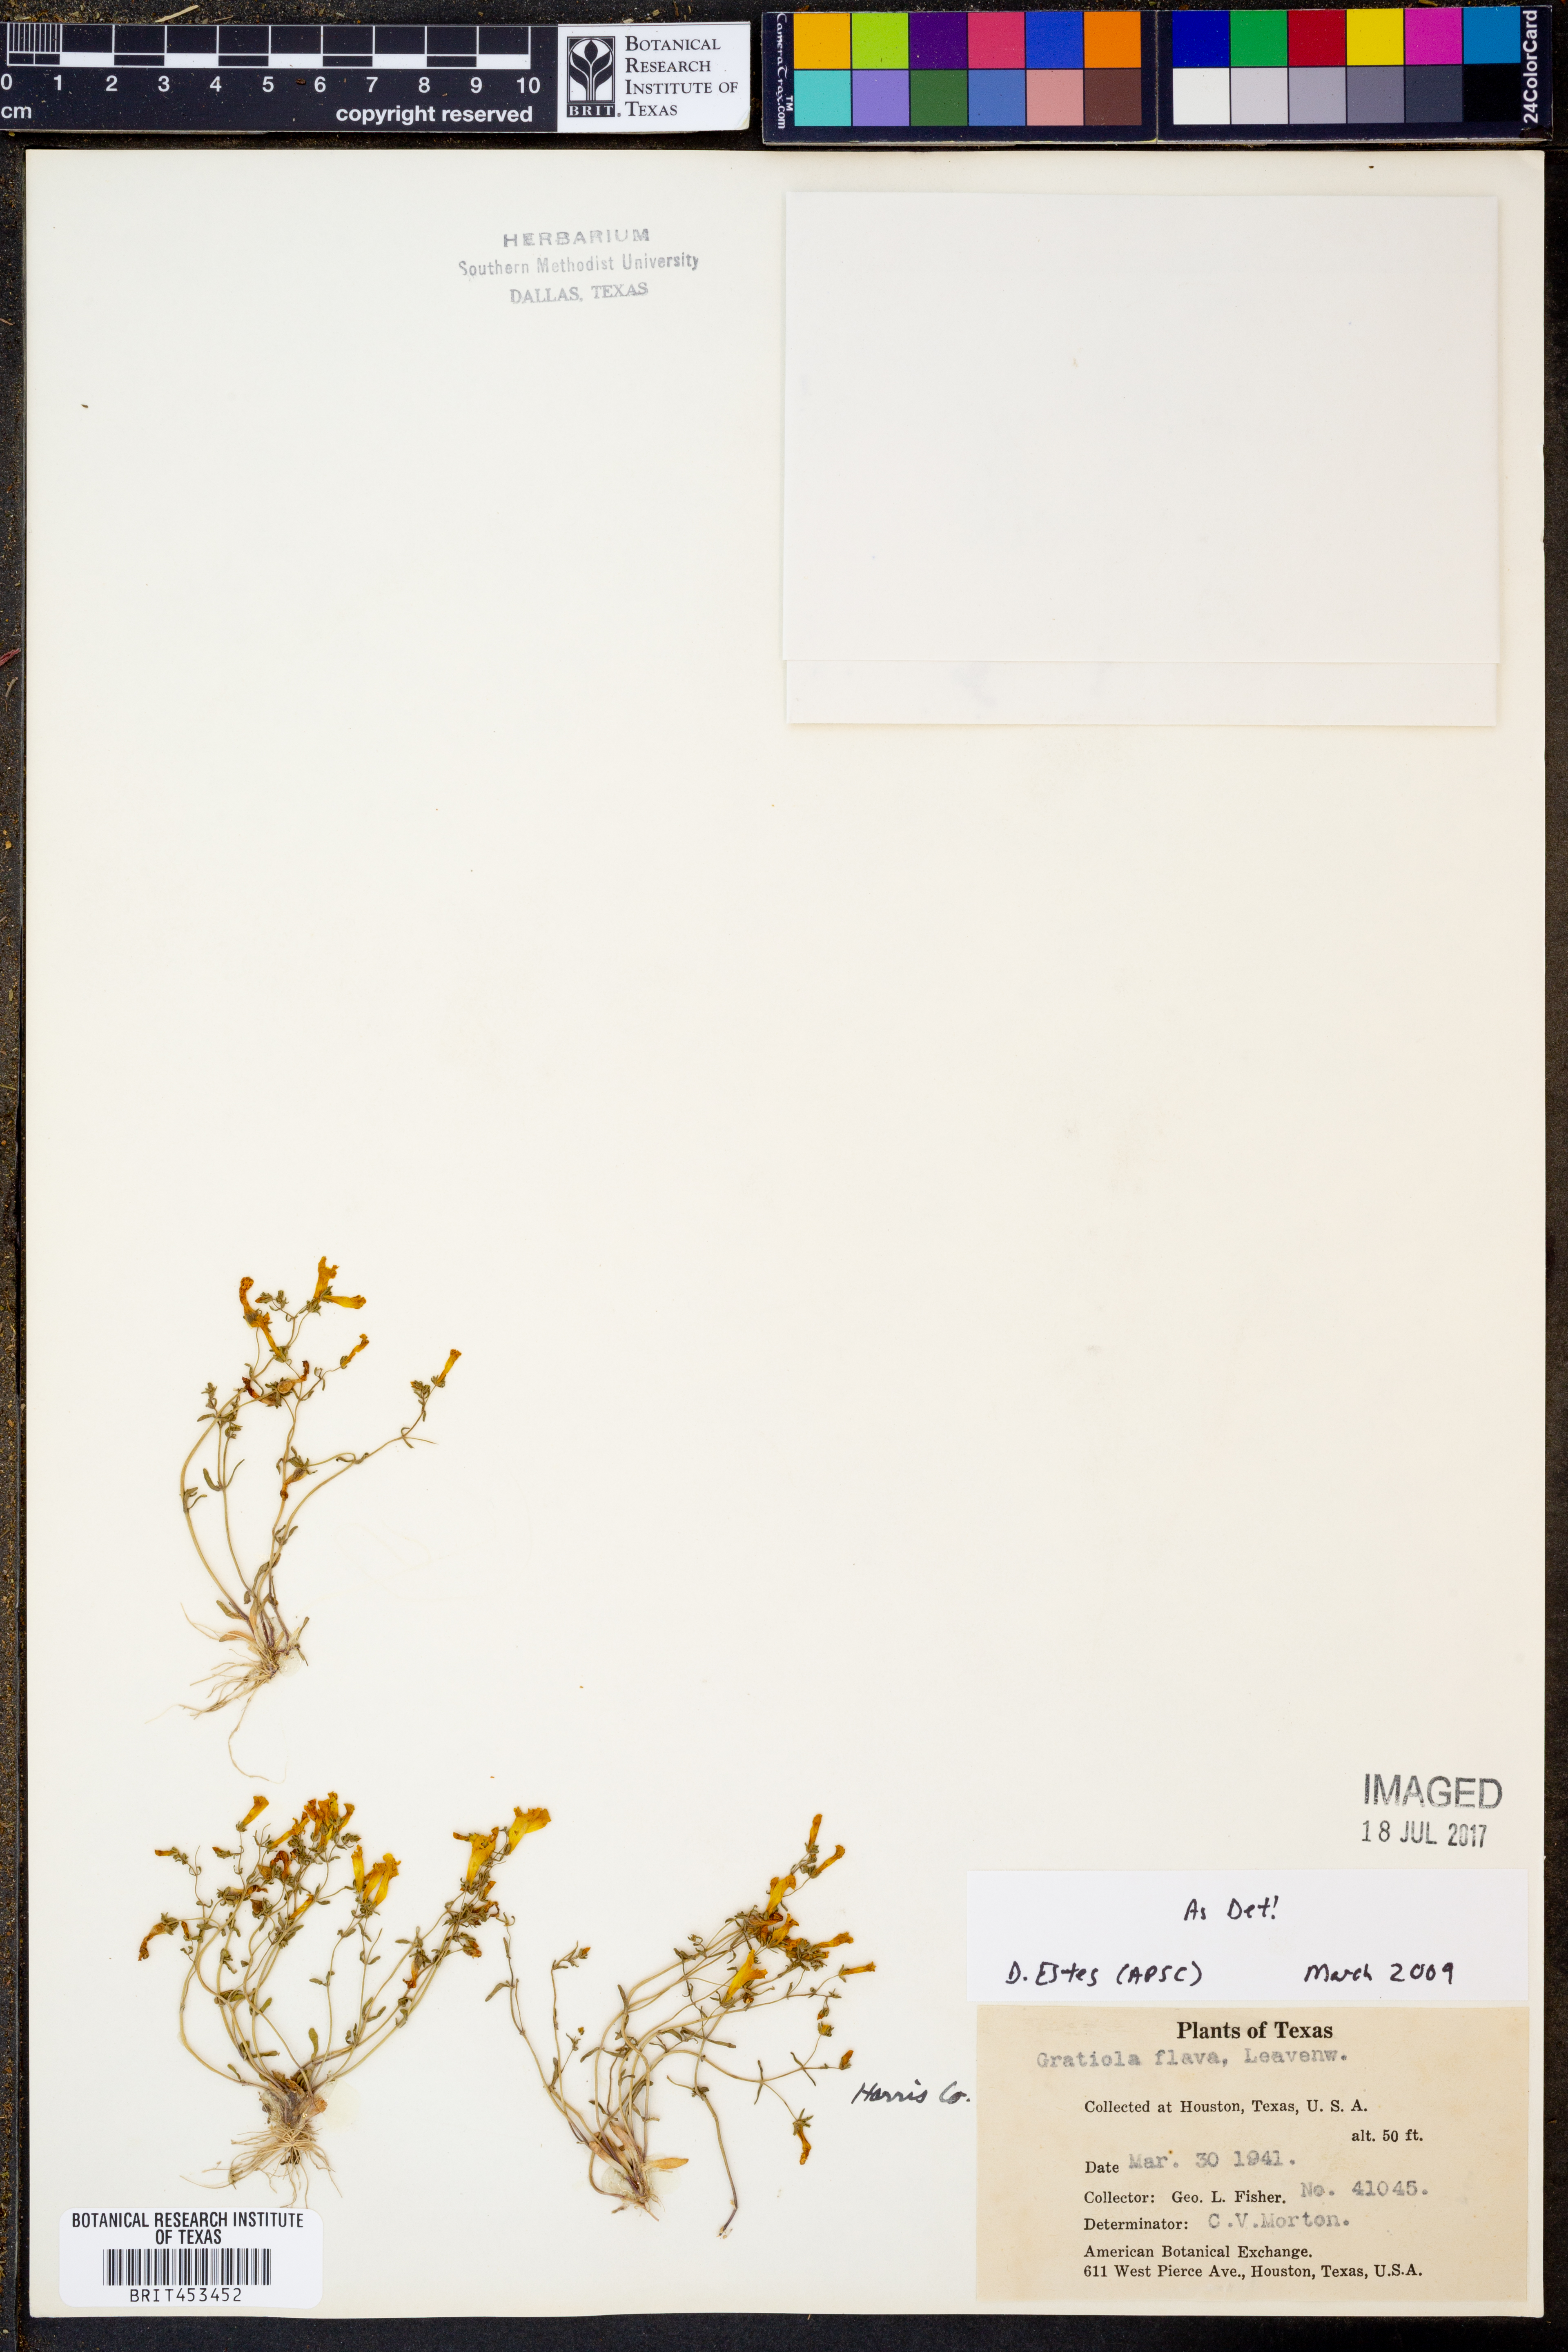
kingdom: Plantae
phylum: Tracheophyta
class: Magnoliopsida
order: Lamiales
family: Plantaginaceae
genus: Gratiola
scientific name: Gratiola flava
